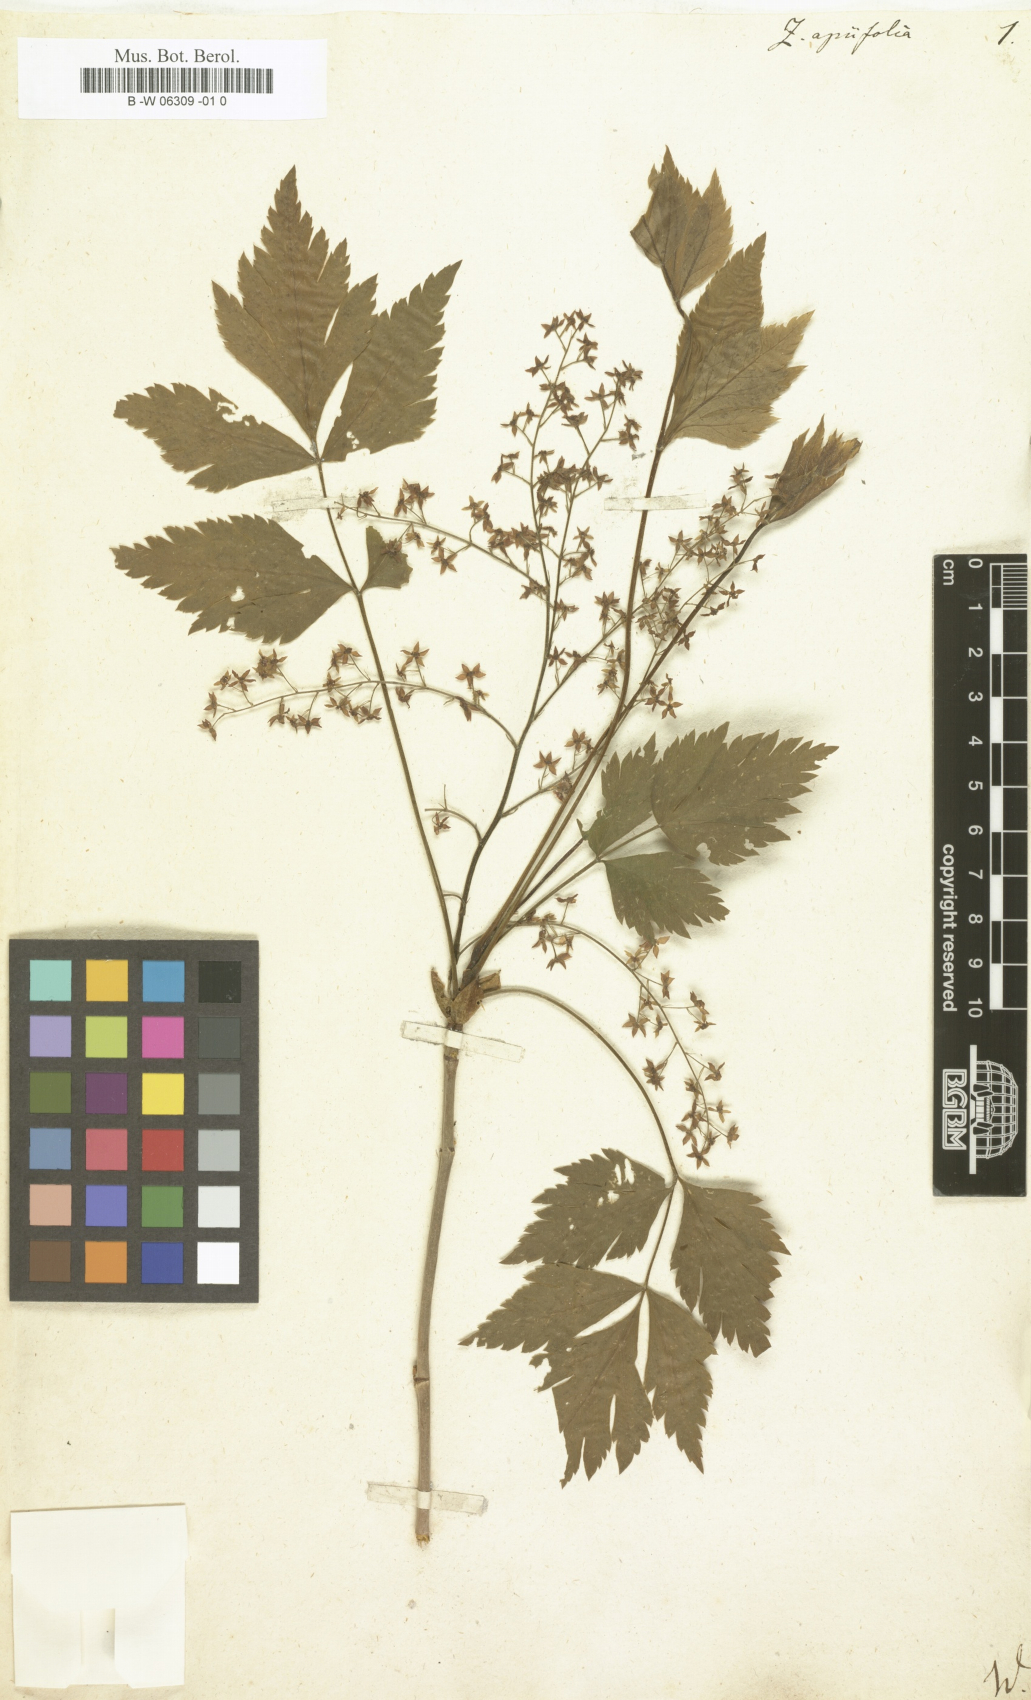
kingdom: Plantae
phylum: Tracheophyta
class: Magnoliopsida
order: Ranunculales
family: Ranunculaceae
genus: Xanthorhiza
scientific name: Xanthorhiza simplicissima
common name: Yellowroot
